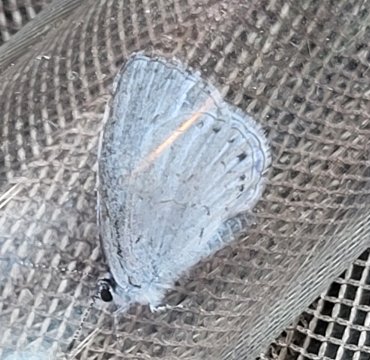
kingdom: Animalia
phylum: Arthropoda
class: Insecta
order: Lepidoptera
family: Lycaenidae
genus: Celastrina
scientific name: Celastrina
